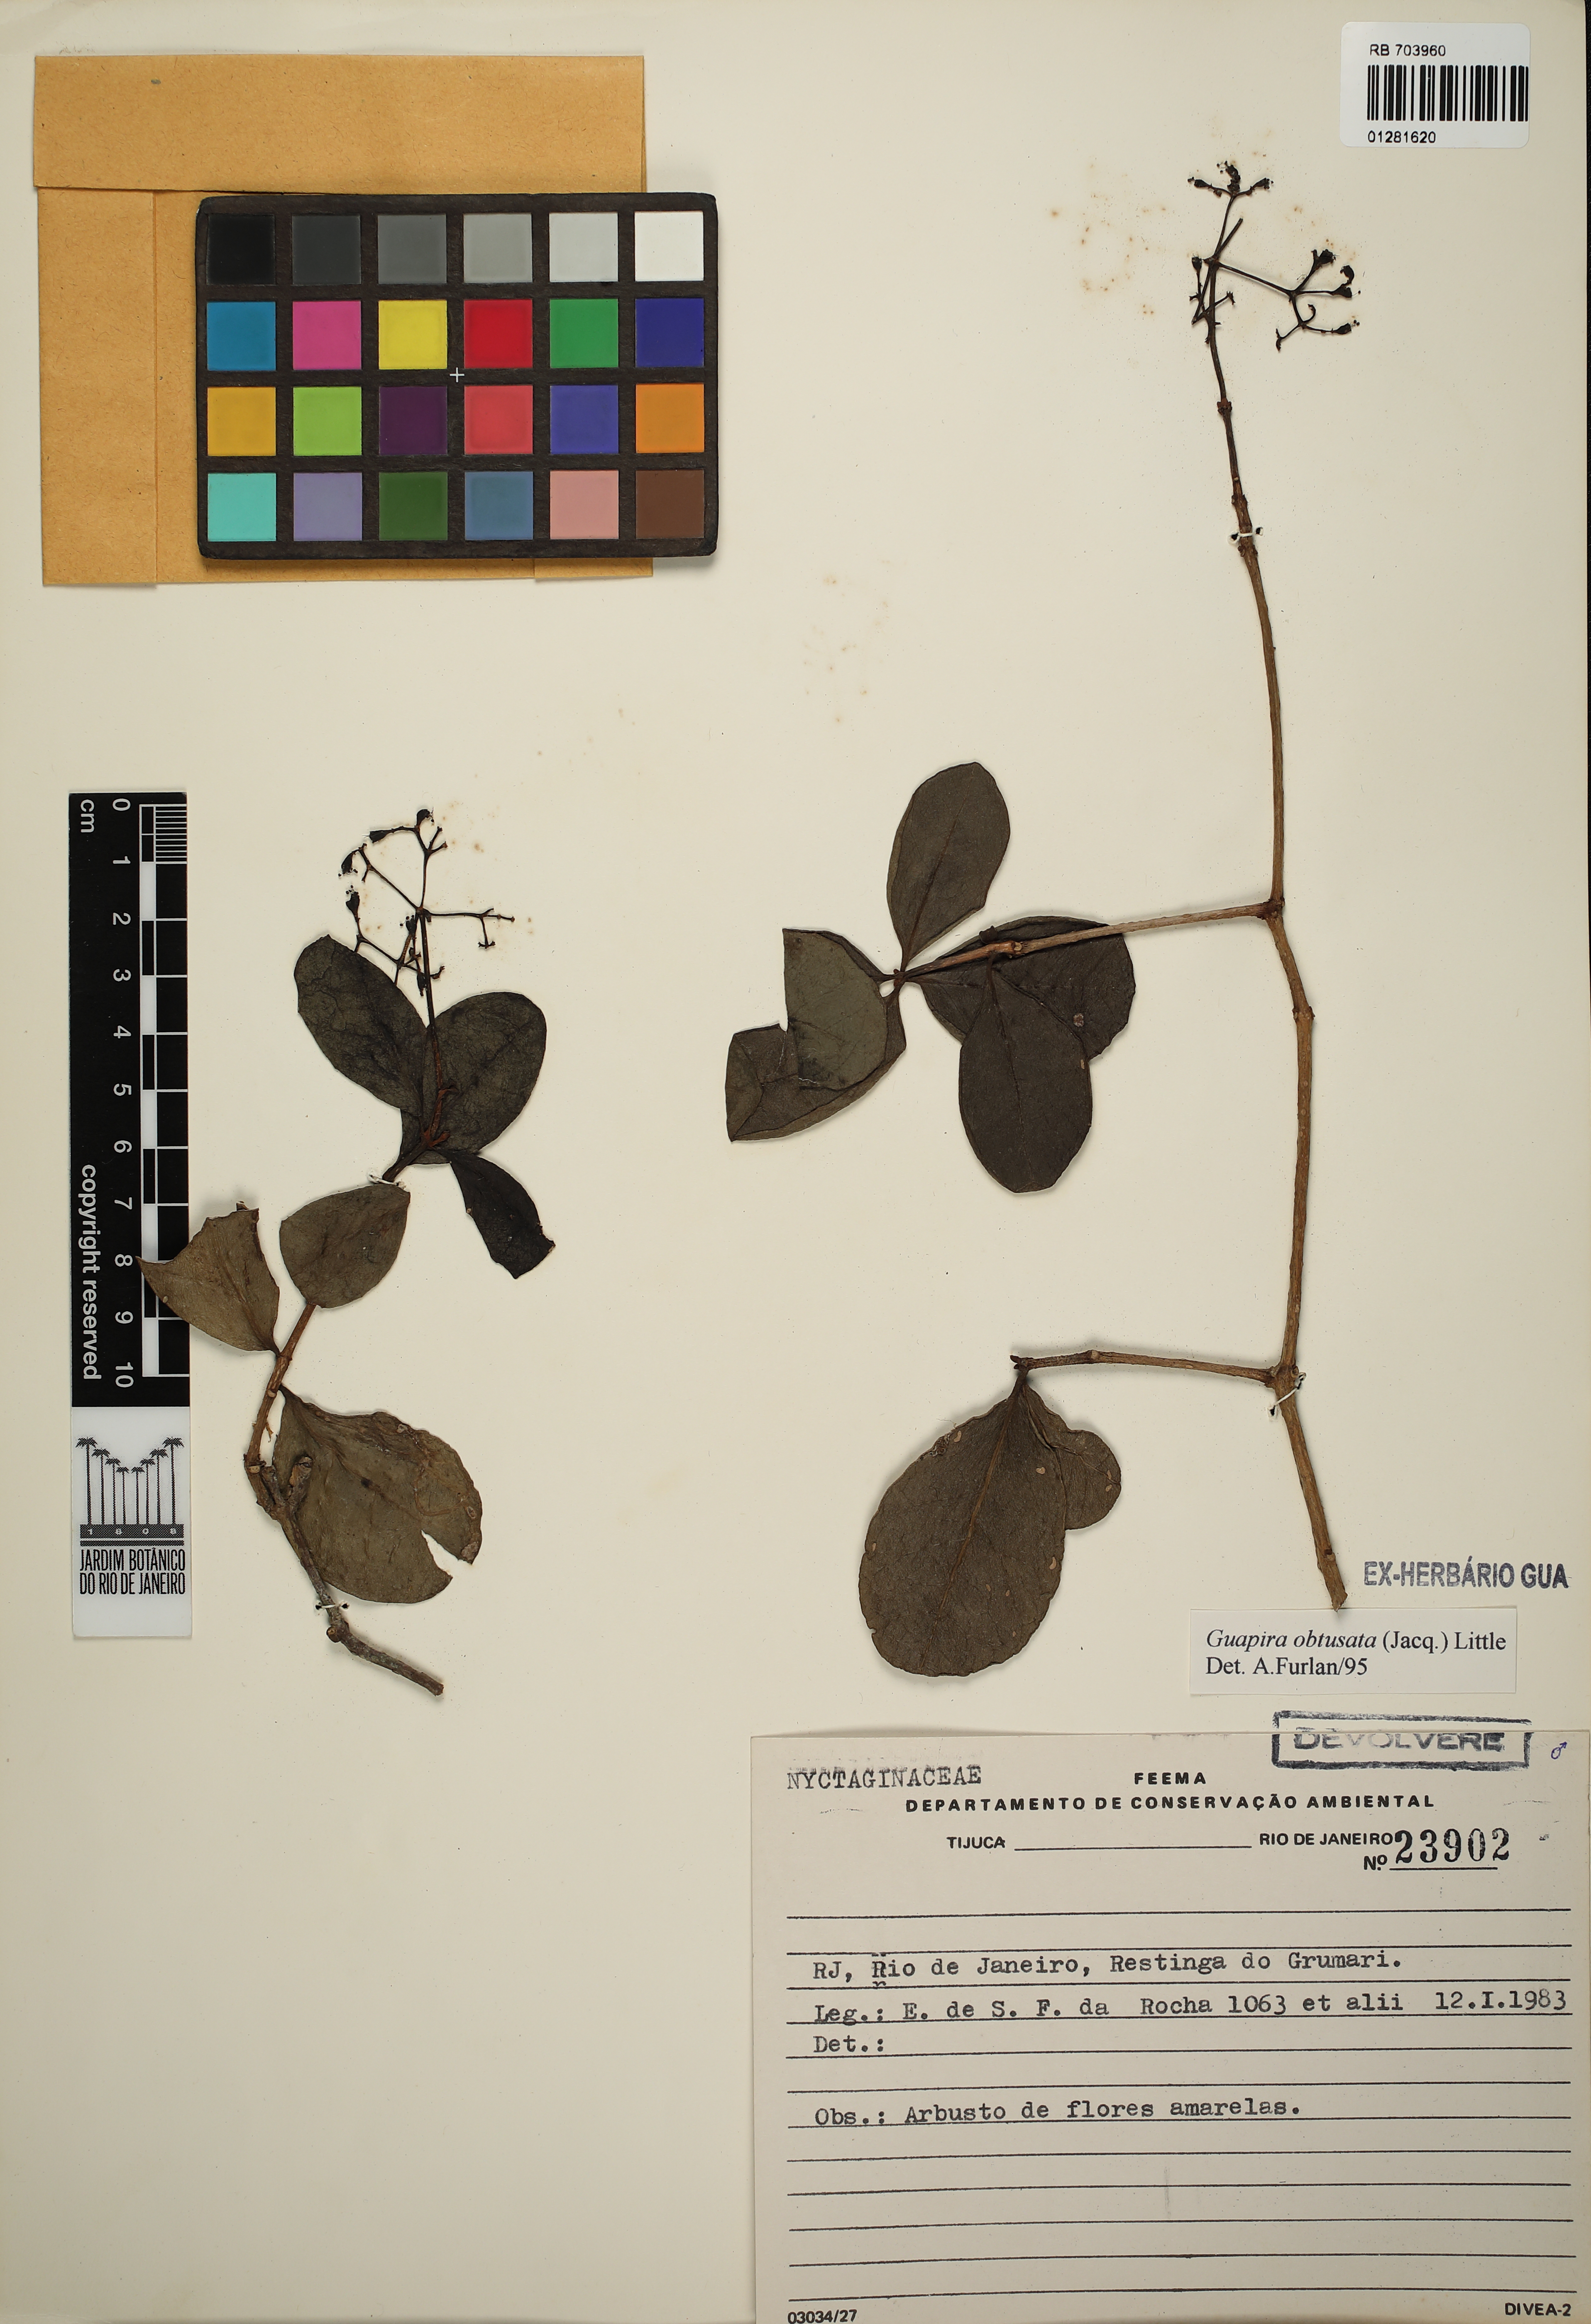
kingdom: Plantae
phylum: Tracheophyta
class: Magnoliopsida
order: Caryophyllales
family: Nyctaginaceae
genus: Guapira
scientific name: Guapira obtusata
